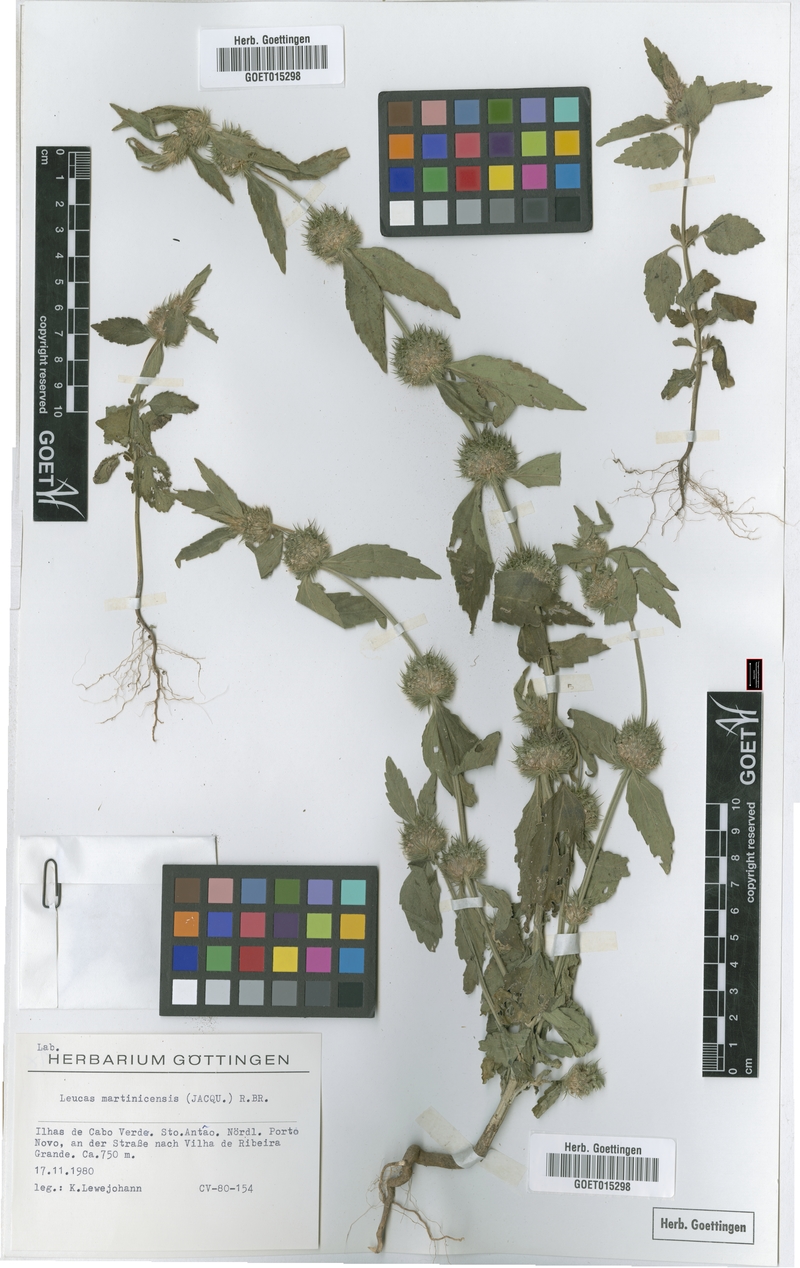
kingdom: Plantae
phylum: Tracheophyta
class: Magnoliopsida
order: Lamiales
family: Lamiaceae
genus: Leucas
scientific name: Leucas martinicensis
